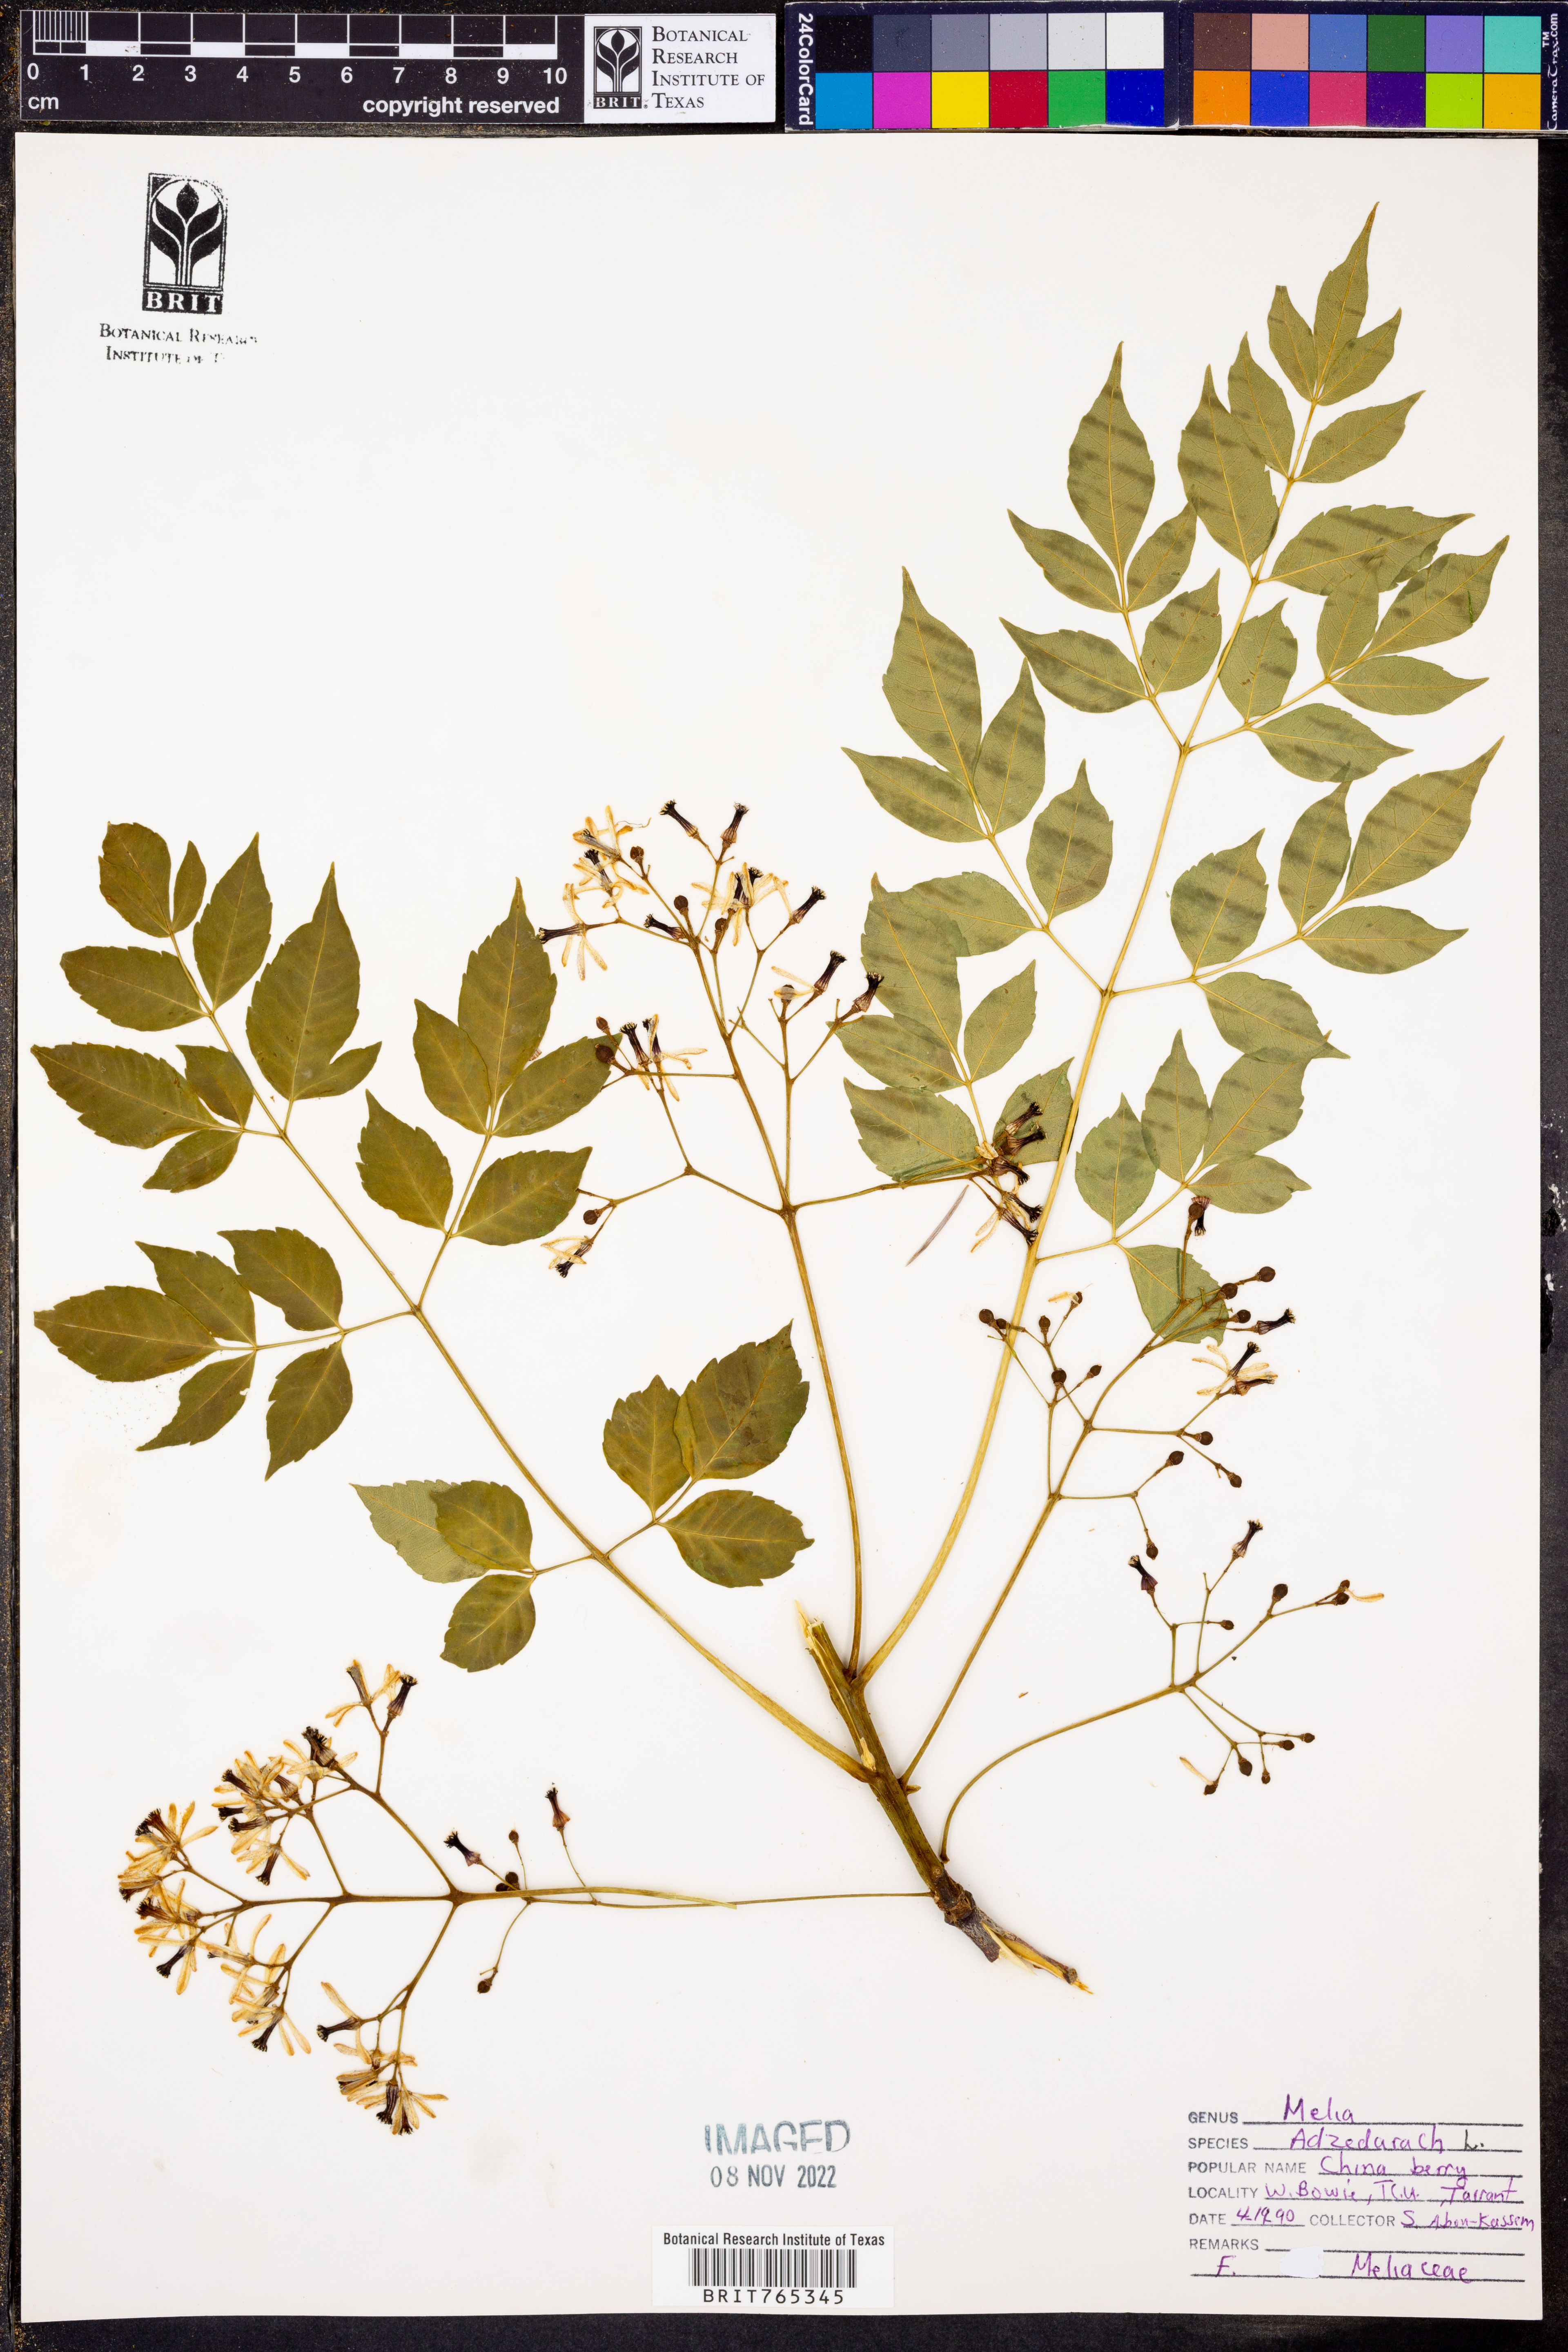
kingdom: Plantae
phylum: Tracheophyta
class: Magnoliopsida
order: Sapindales
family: Meliaceae
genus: Melia
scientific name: Melia azedarach
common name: Chinaberrytree
